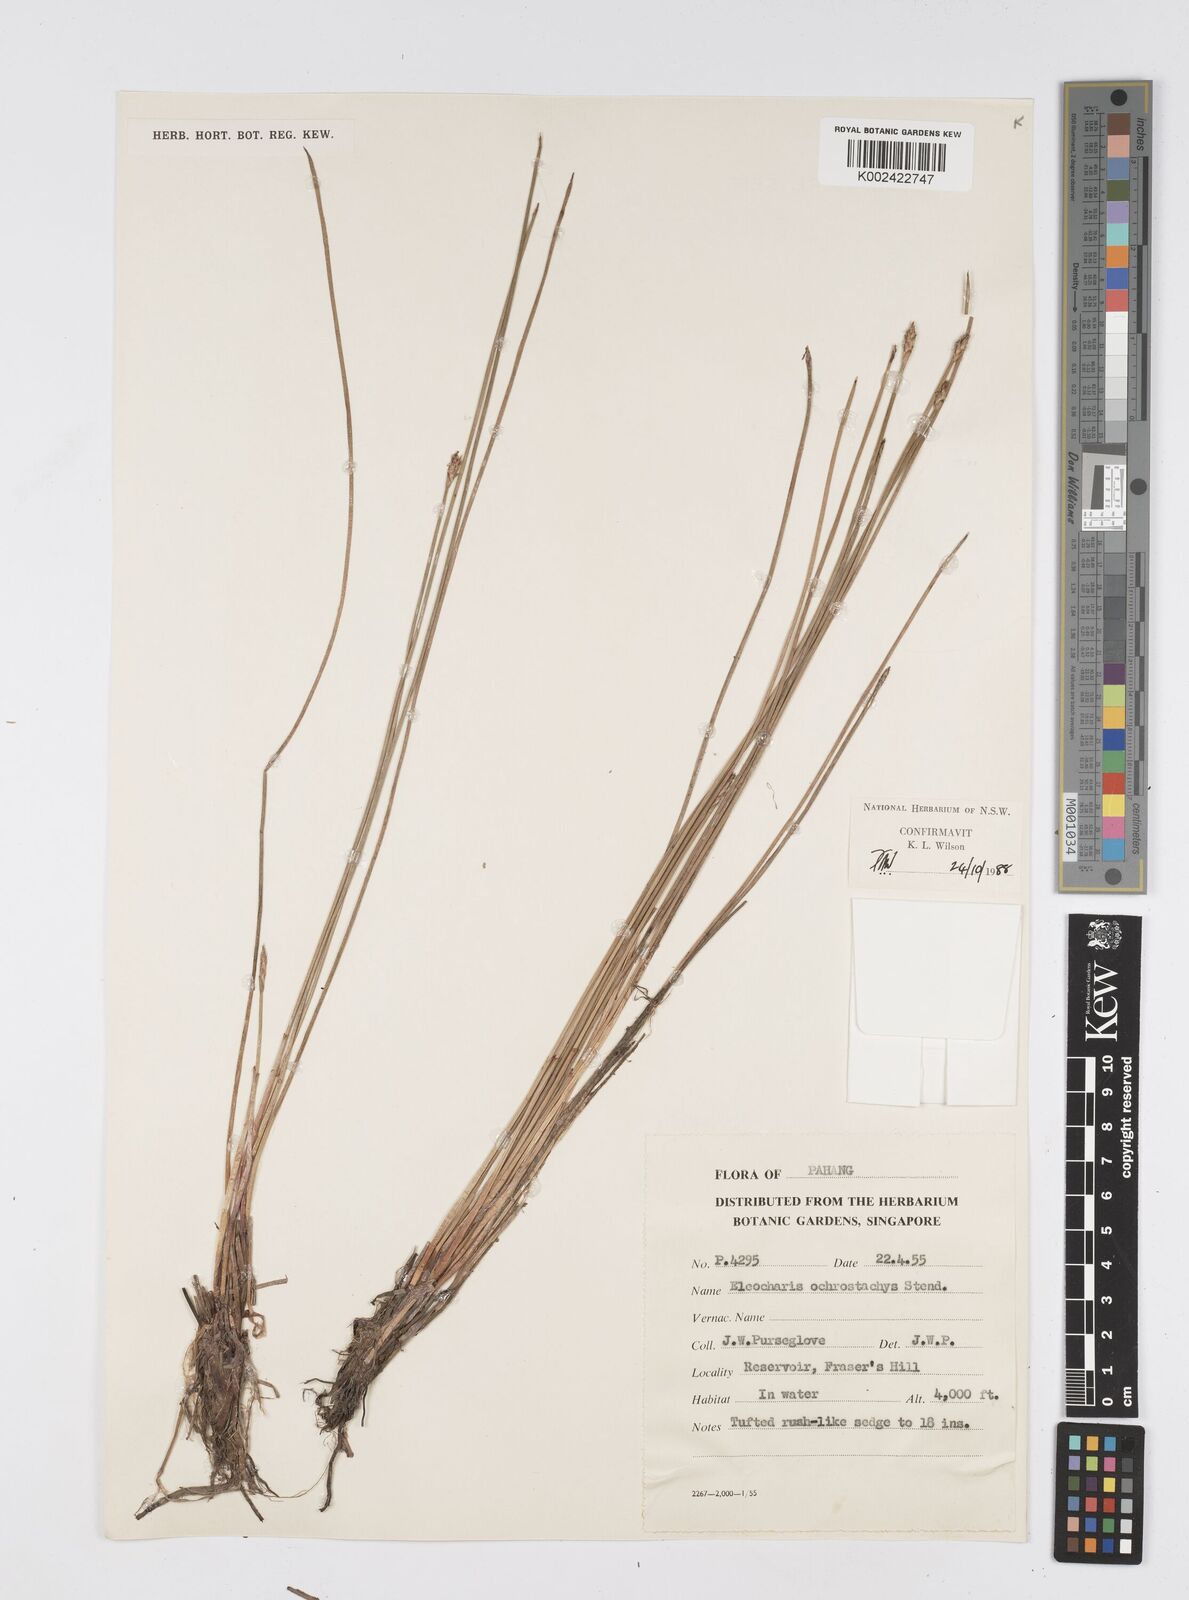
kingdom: Plantae
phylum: Tracheophyta
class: Liliopsida
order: Poales
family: Cyperaceae
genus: Eleocharis
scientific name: Eleocharis ochrostachys
